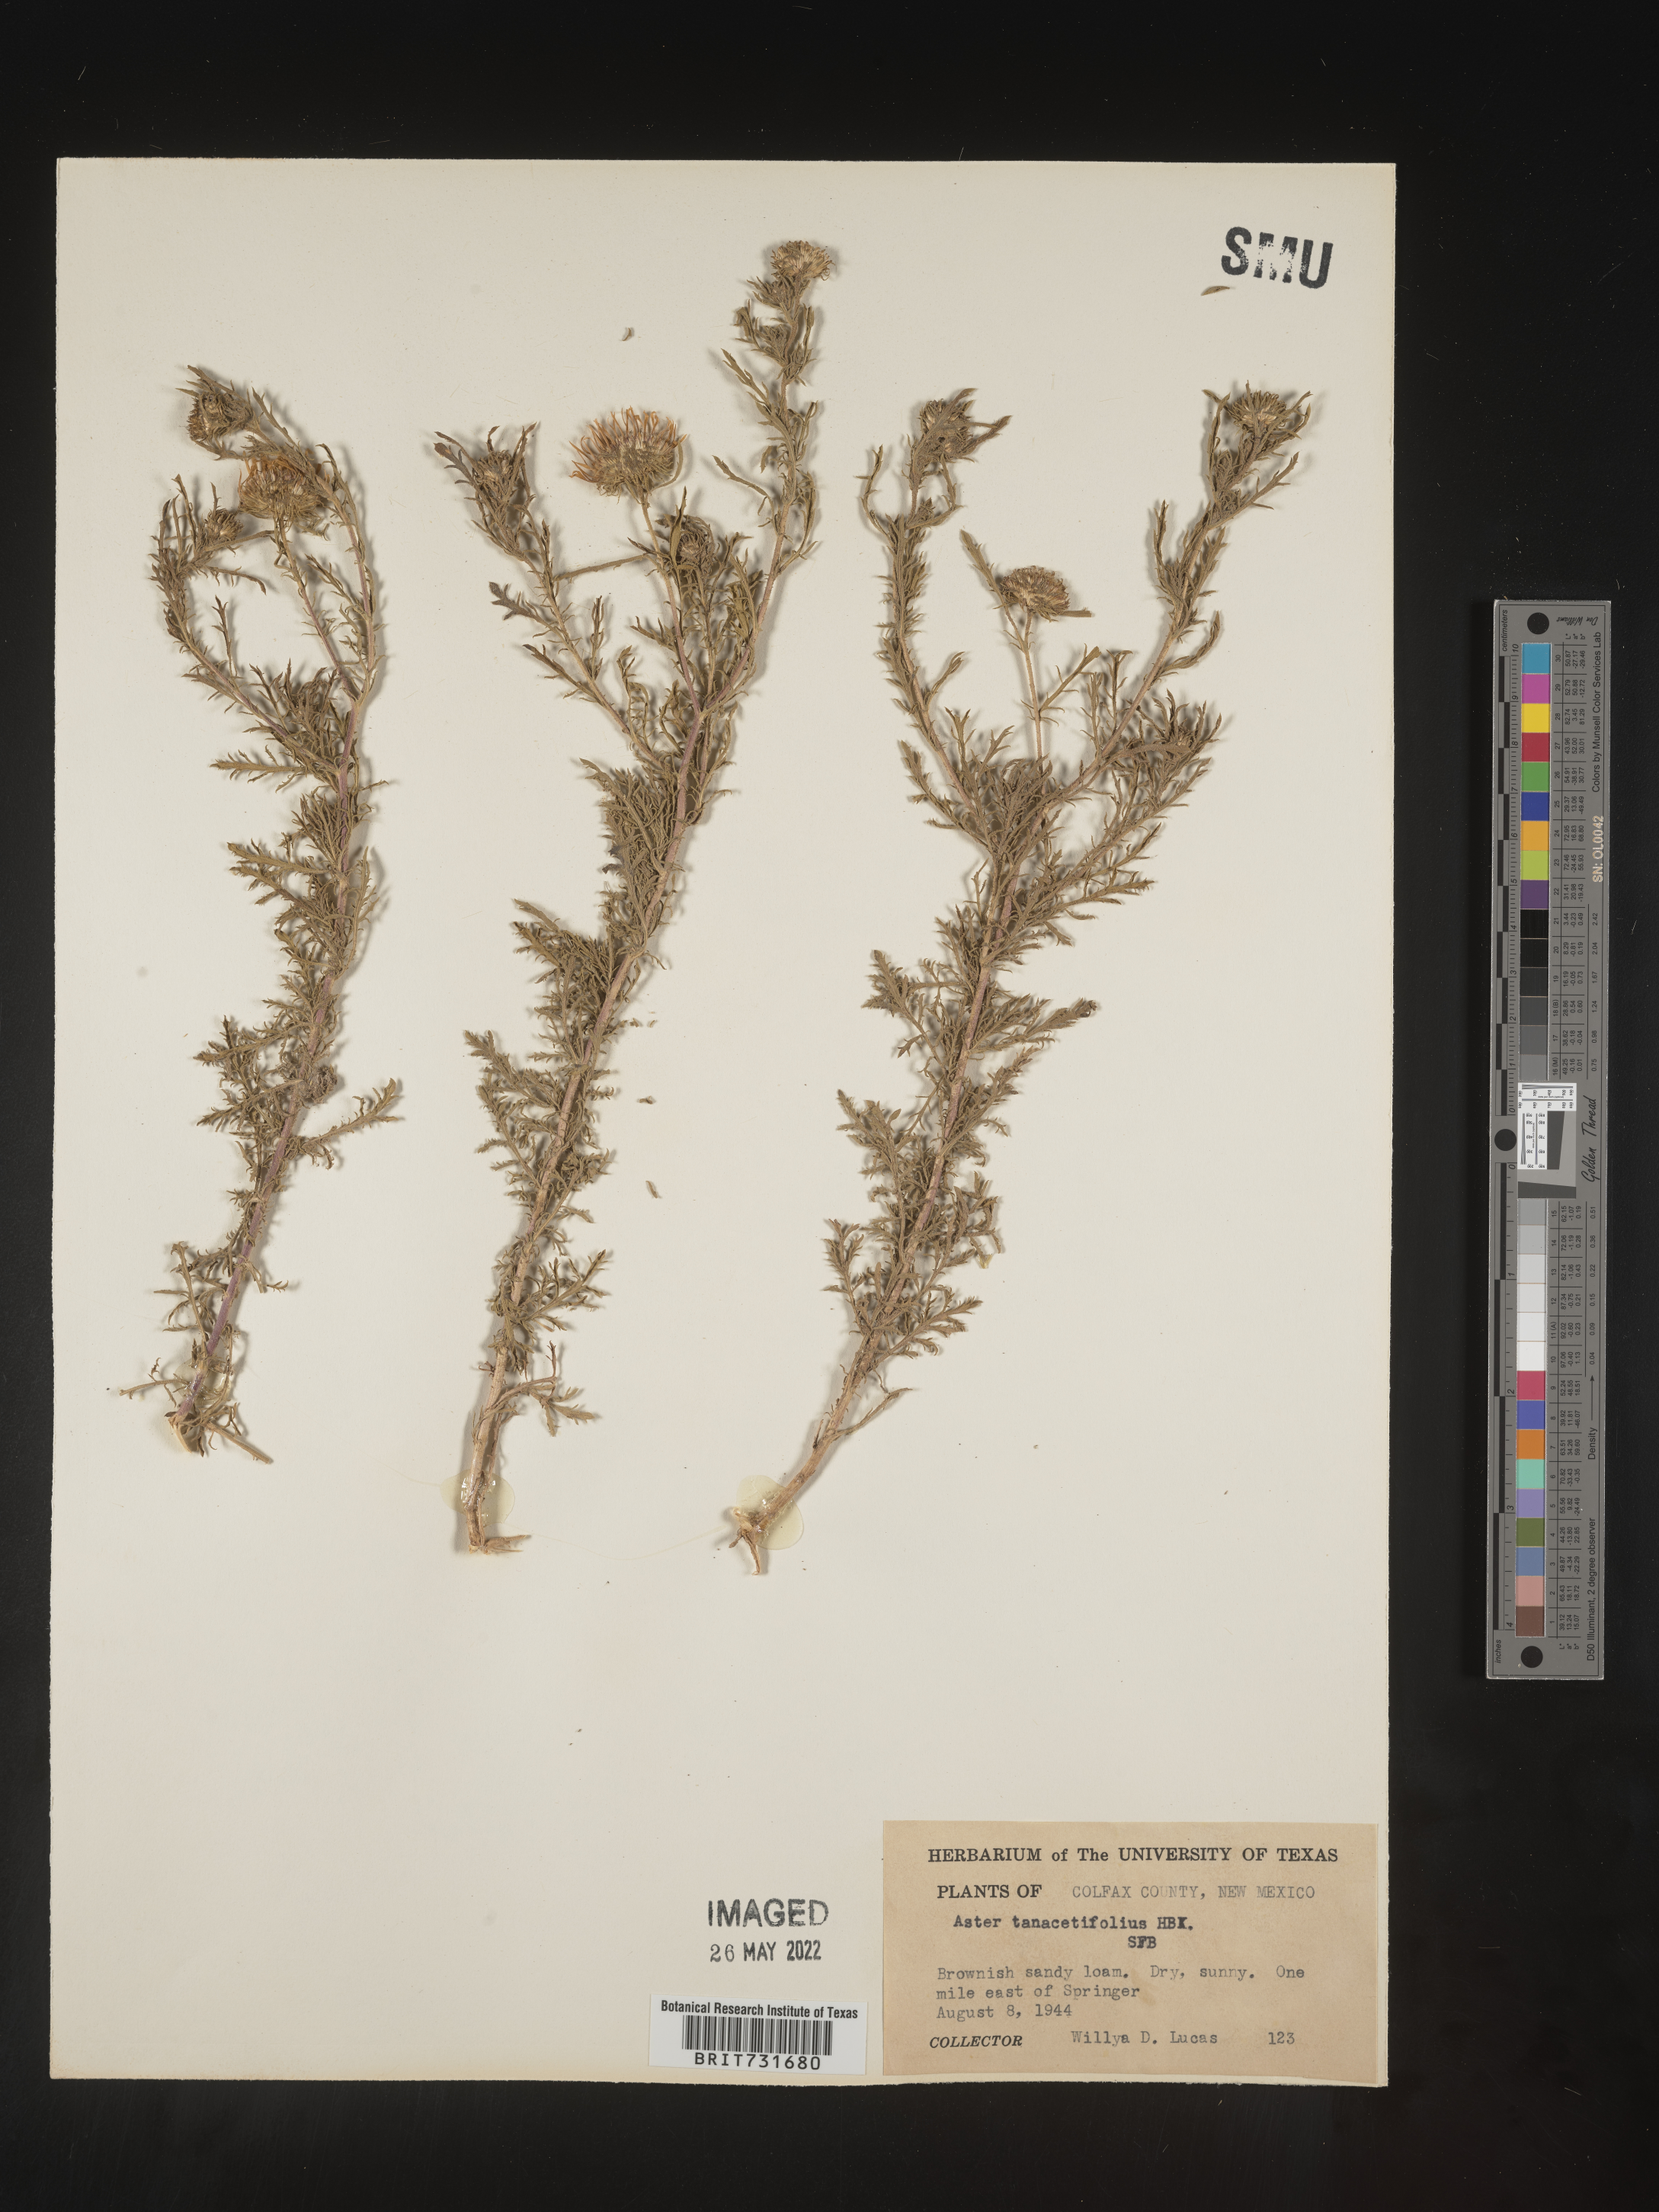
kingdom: Plantae
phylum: Tracheophyta
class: Magnoliopsida
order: Asterales
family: Asteraceae
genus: Machaeranthera
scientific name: Machaeranthera tanacetifolia
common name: Tansy-aster
